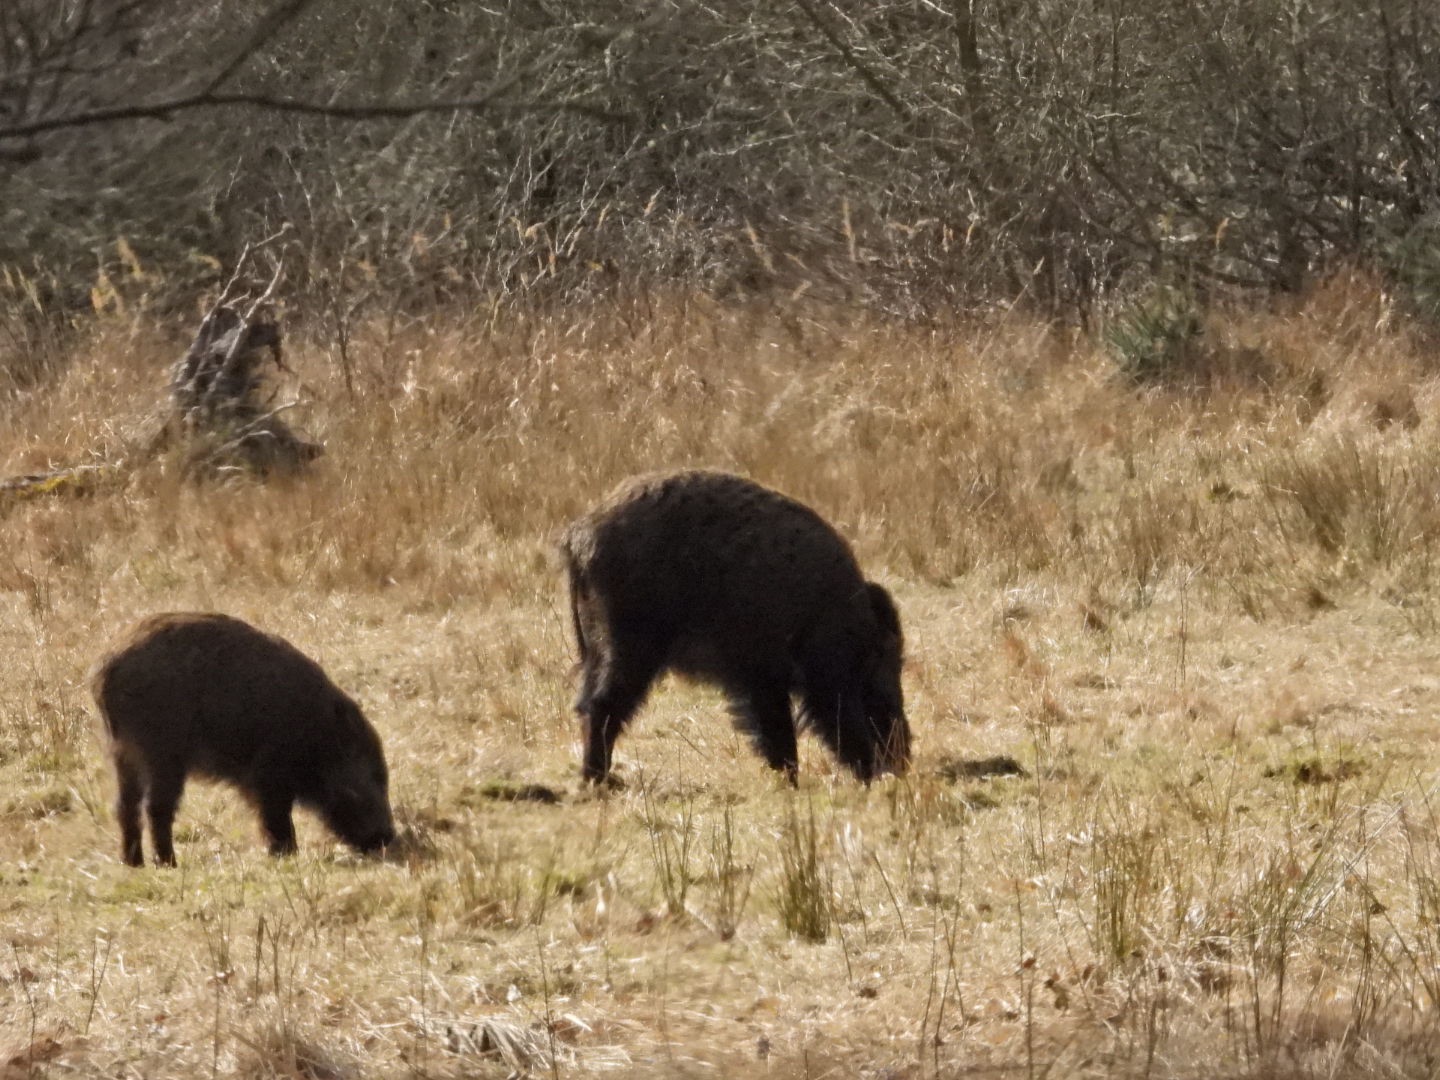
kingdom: Animalia
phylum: Chordata
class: Mammalia
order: Artiodactyla
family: Suidae
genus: Sus
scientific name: Sus scrofa
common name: Vildsvin
